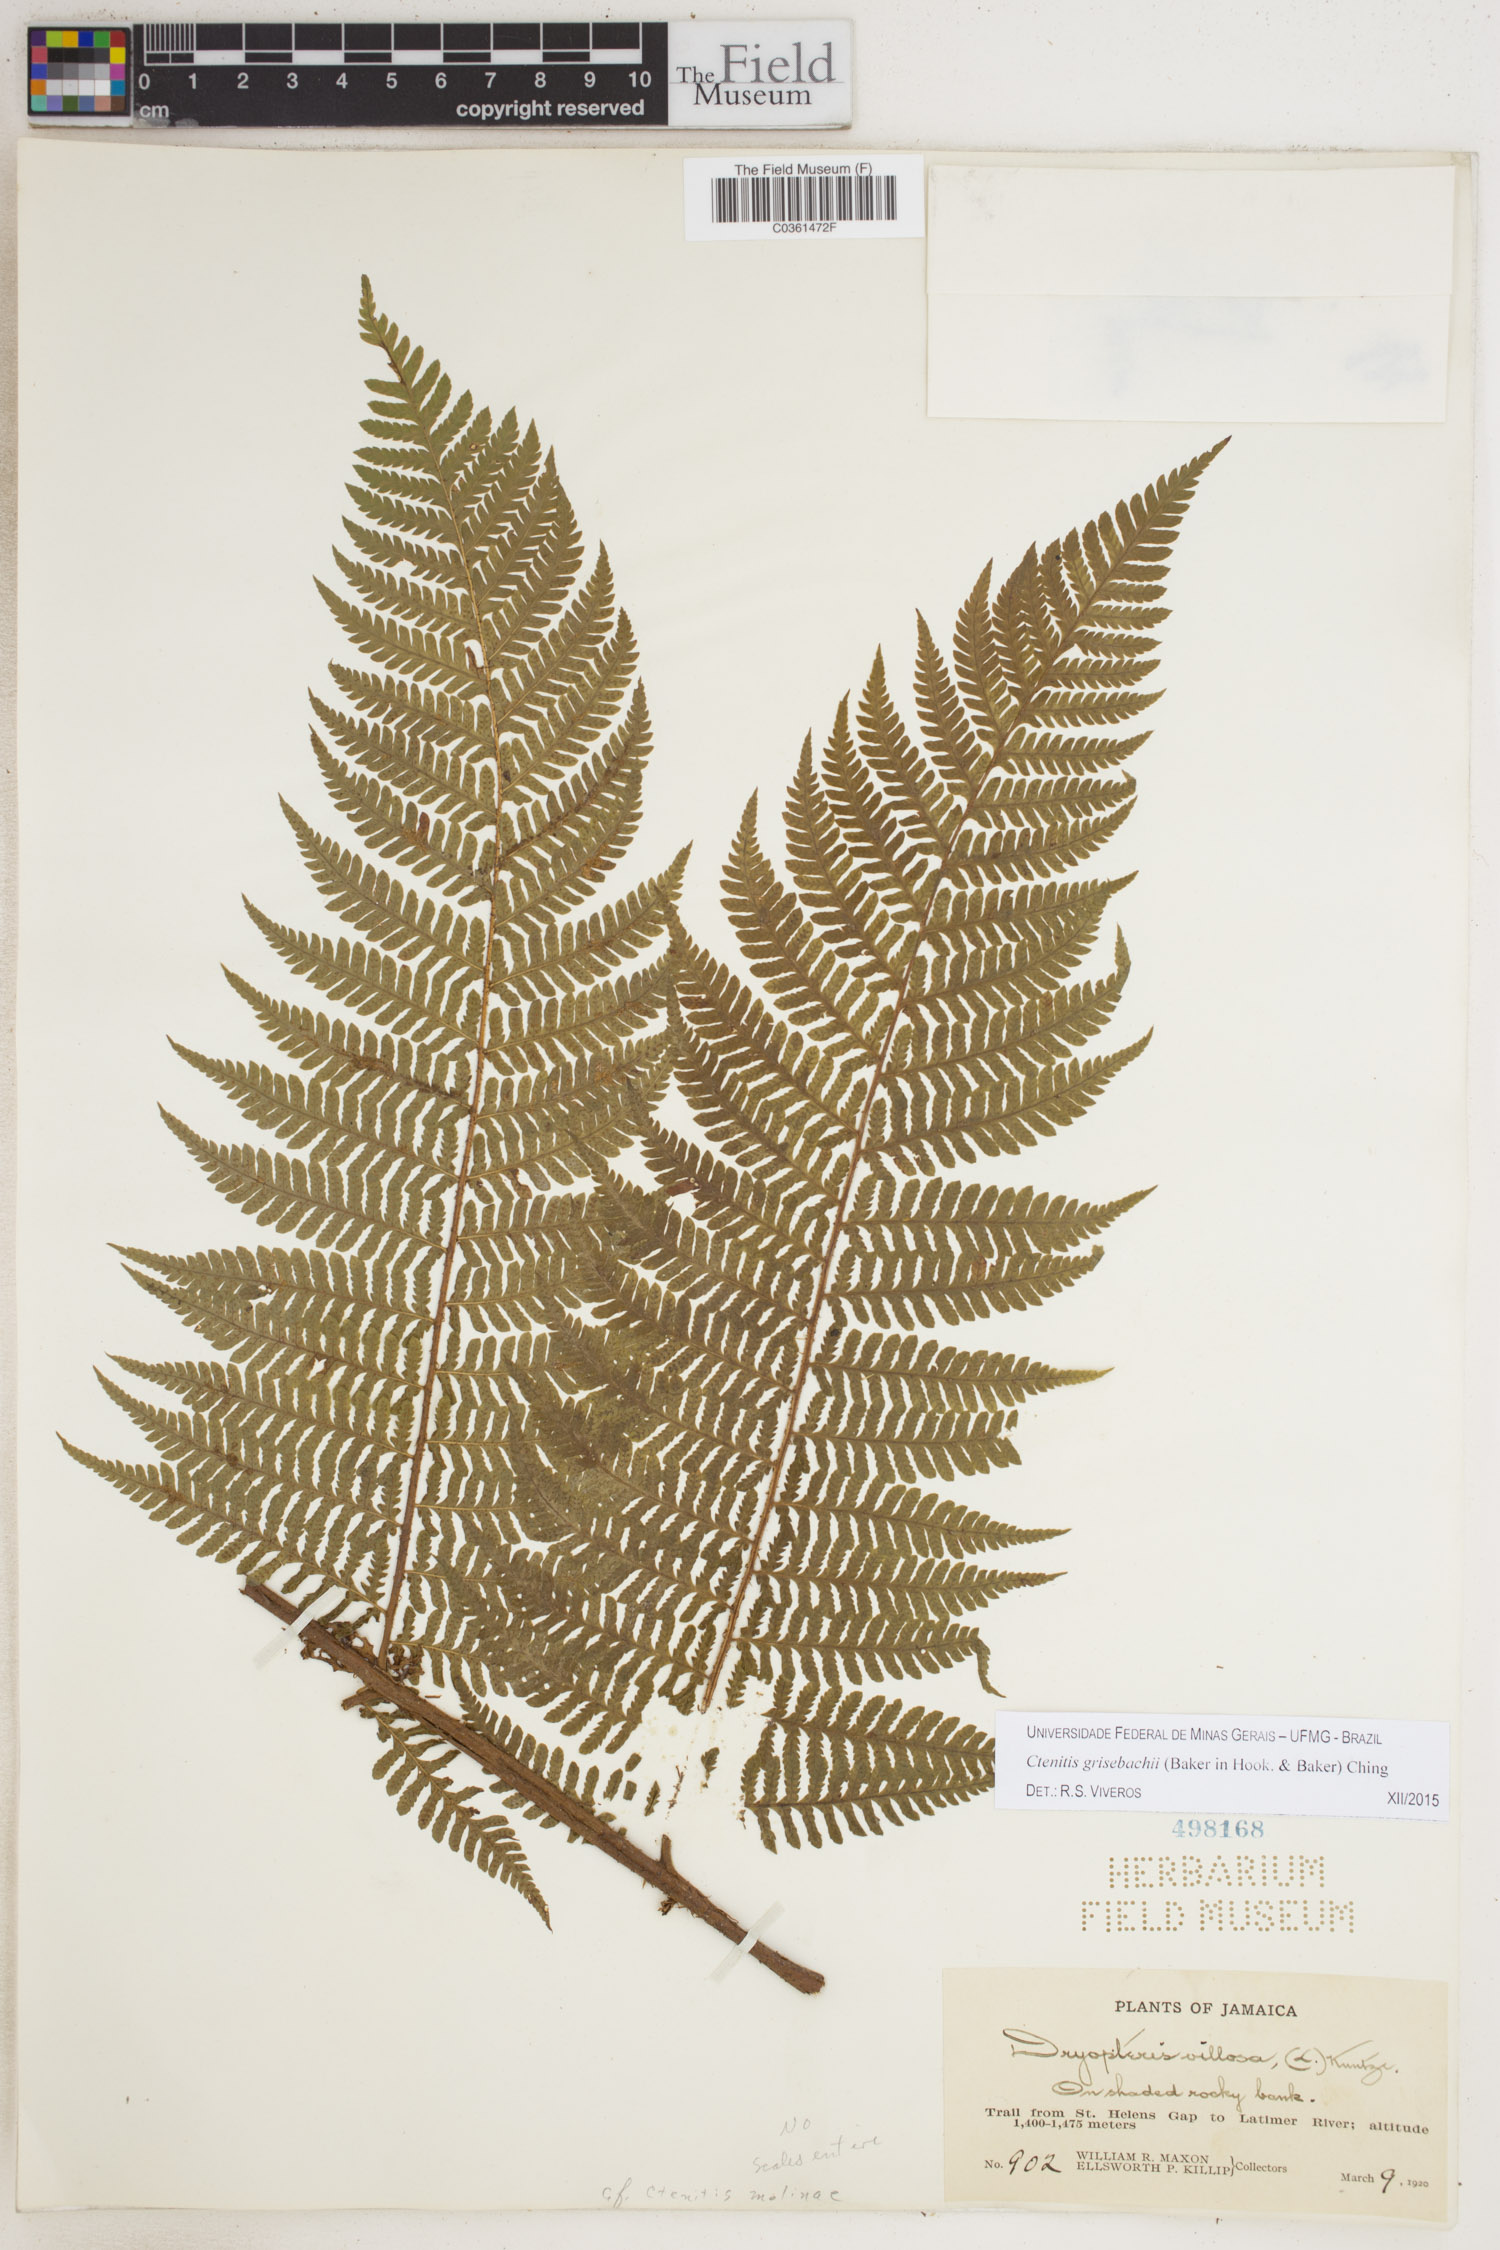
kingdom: Plantae
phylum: Tracheophyta
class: Polypodiopsida
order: Polypodiales
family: Dryopteridaceae
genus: Ctenitis
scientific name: Ctenitis grisebachii
